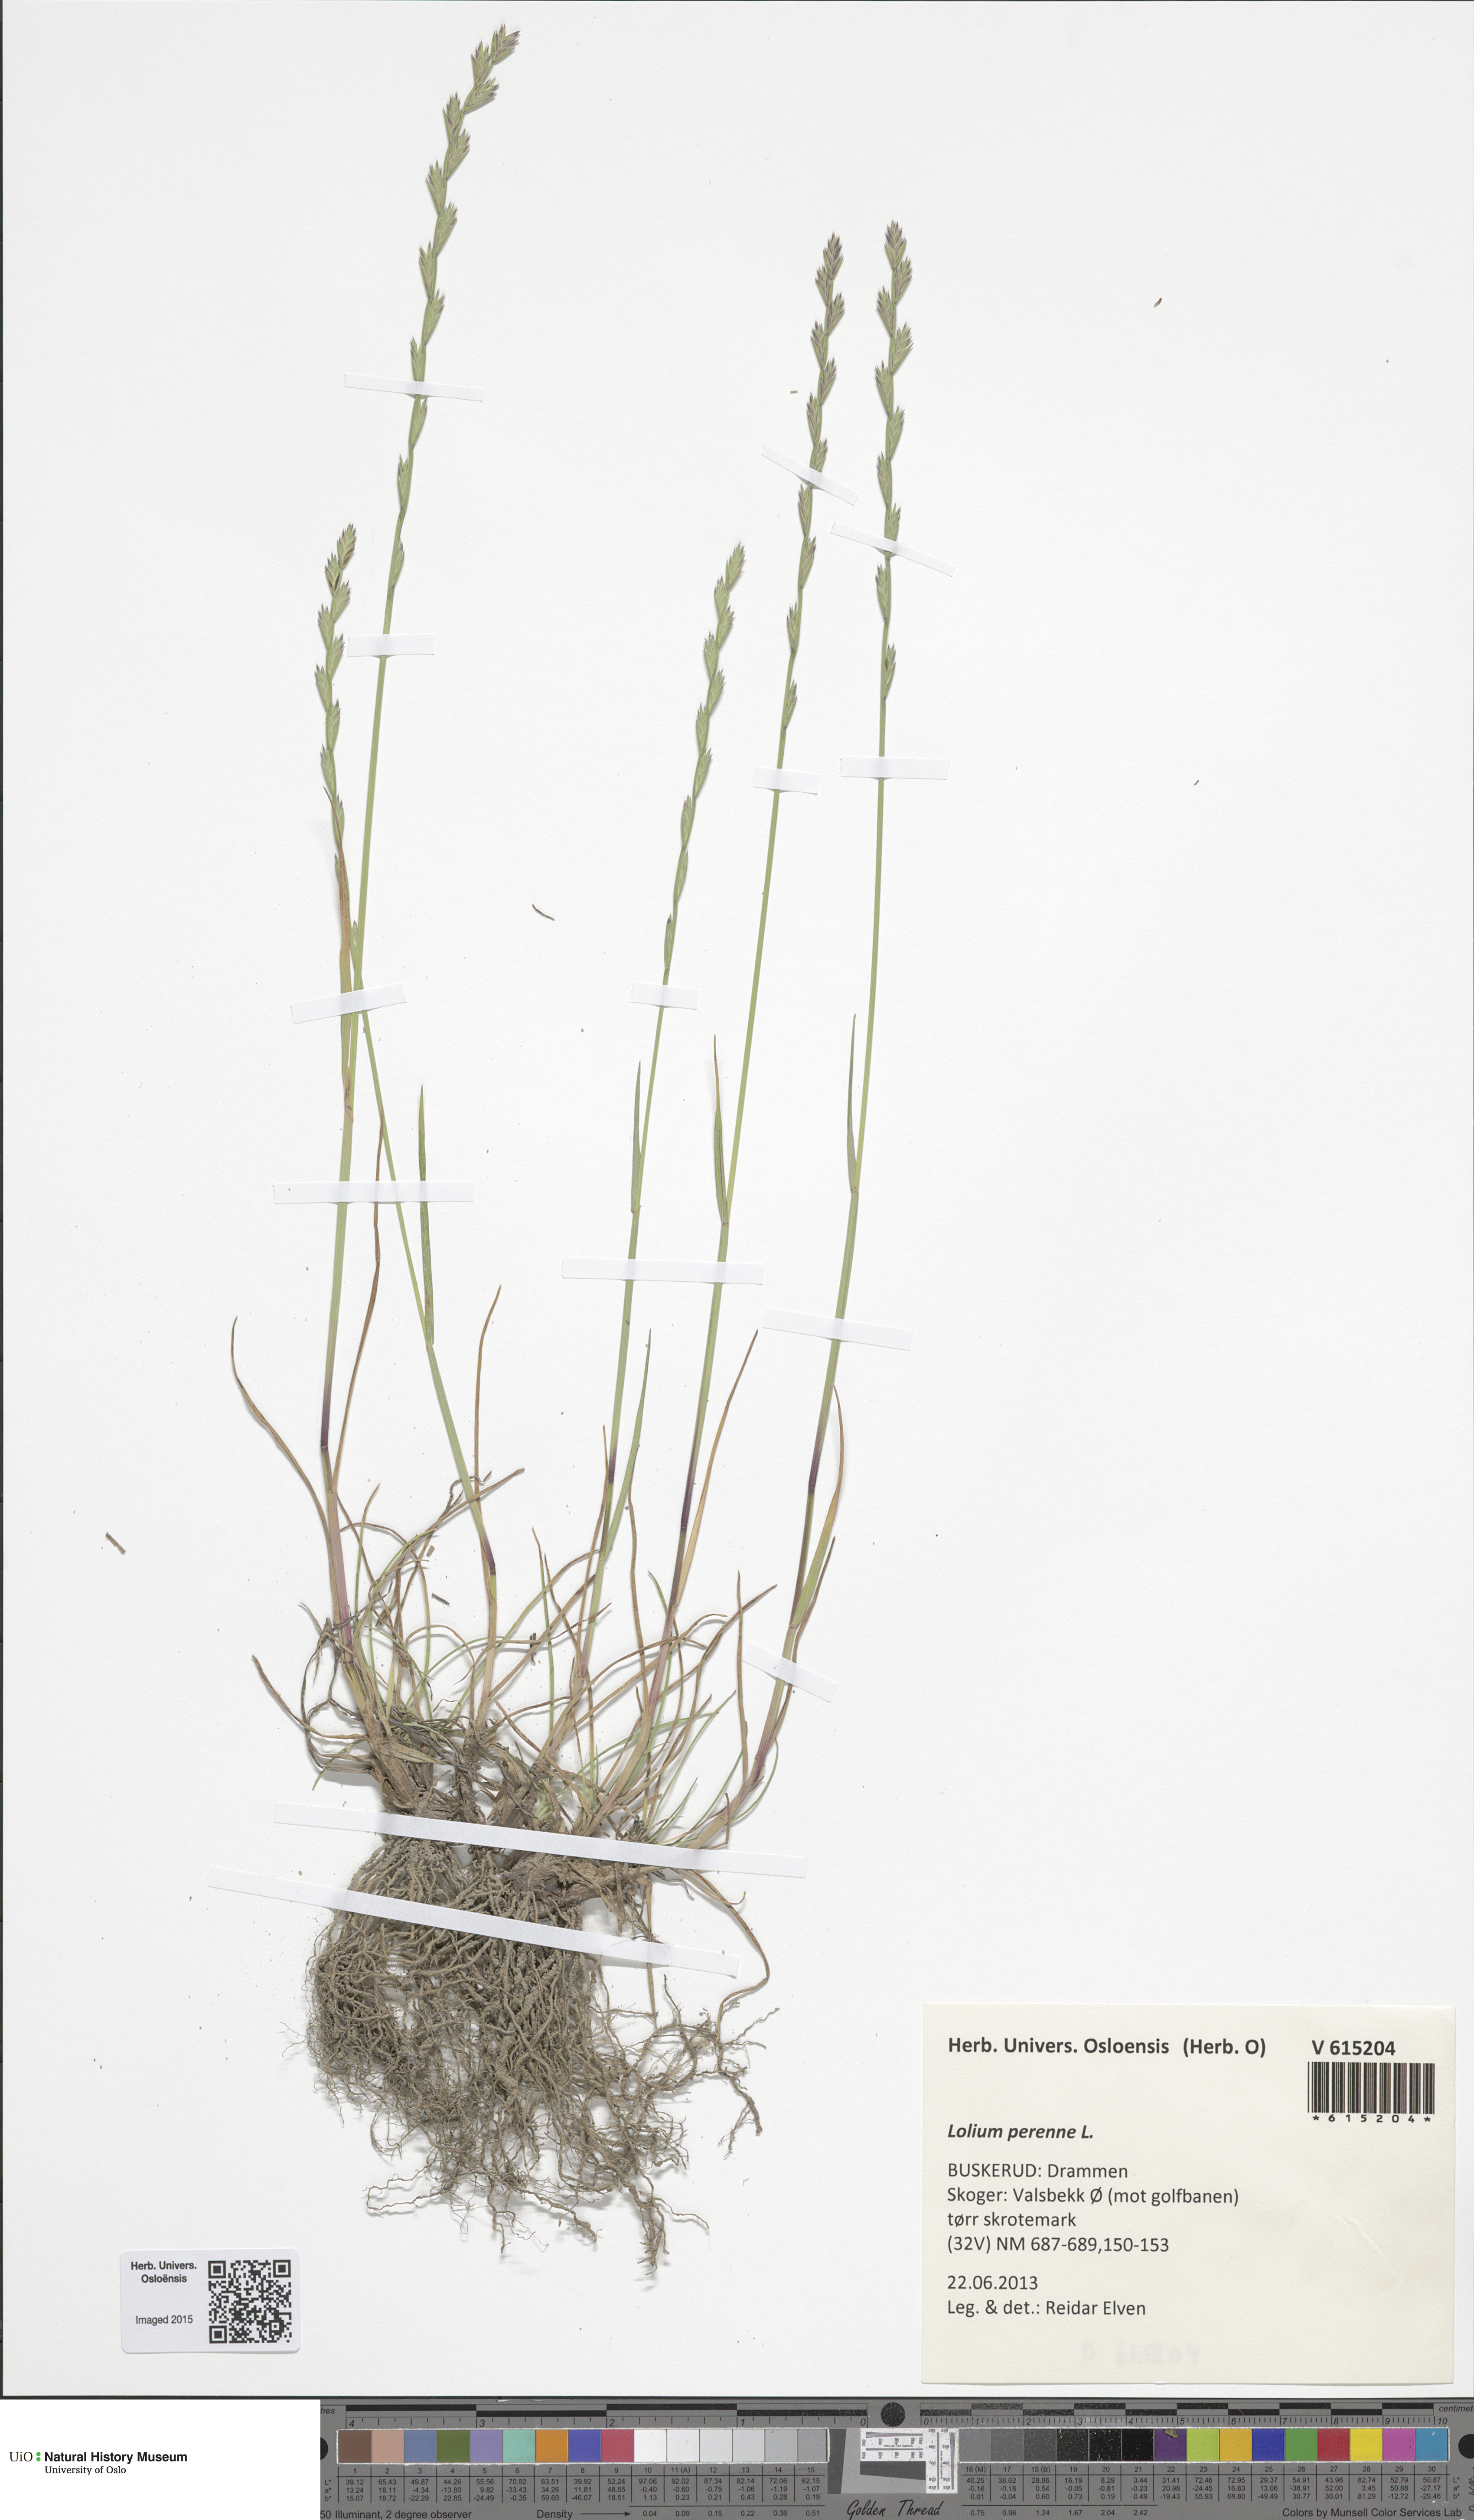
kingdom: Plantae
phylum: Tracheophyta
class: Liliopsida
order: Poales
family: Poaceae
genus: Lolium
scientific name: Lolium perenne
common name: Perennial ryegrass
